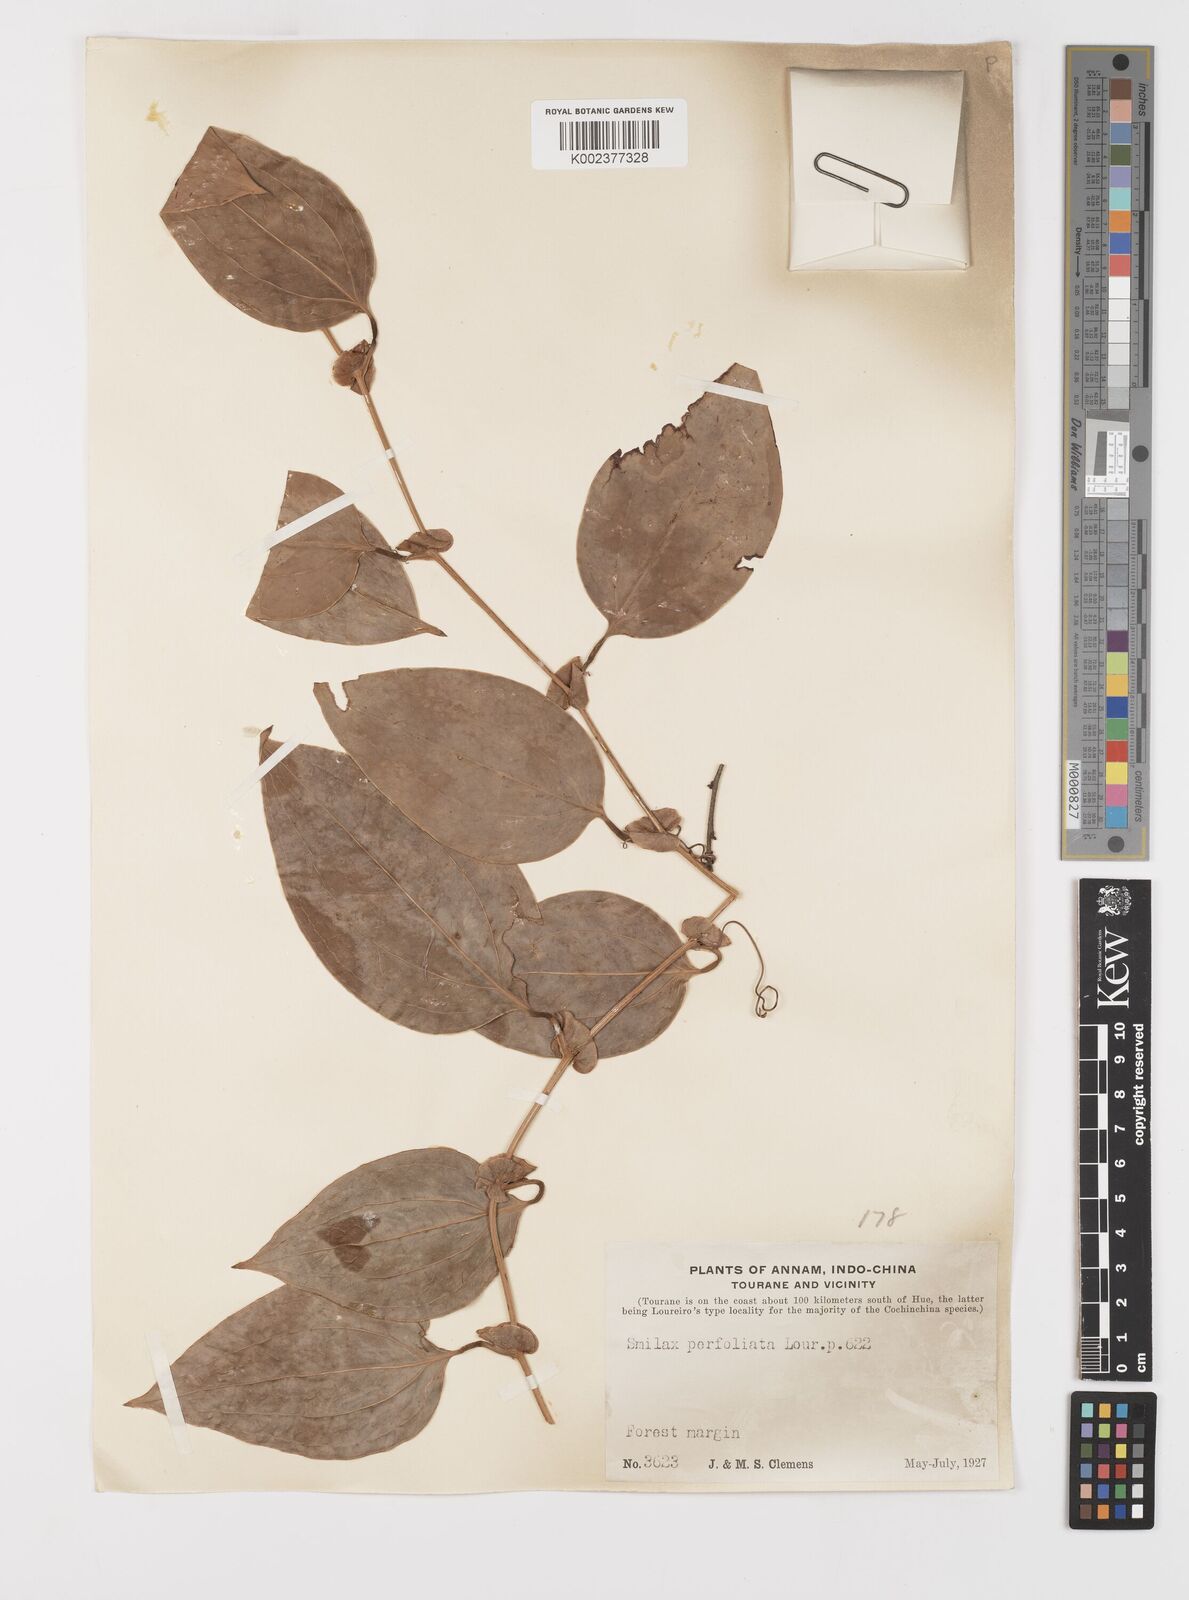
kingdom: Plantae
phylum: Tracheophyta
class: Liliopsida
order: Liliales
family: Smilacaceae
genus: Smilax
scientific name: Smilax perfoliata
